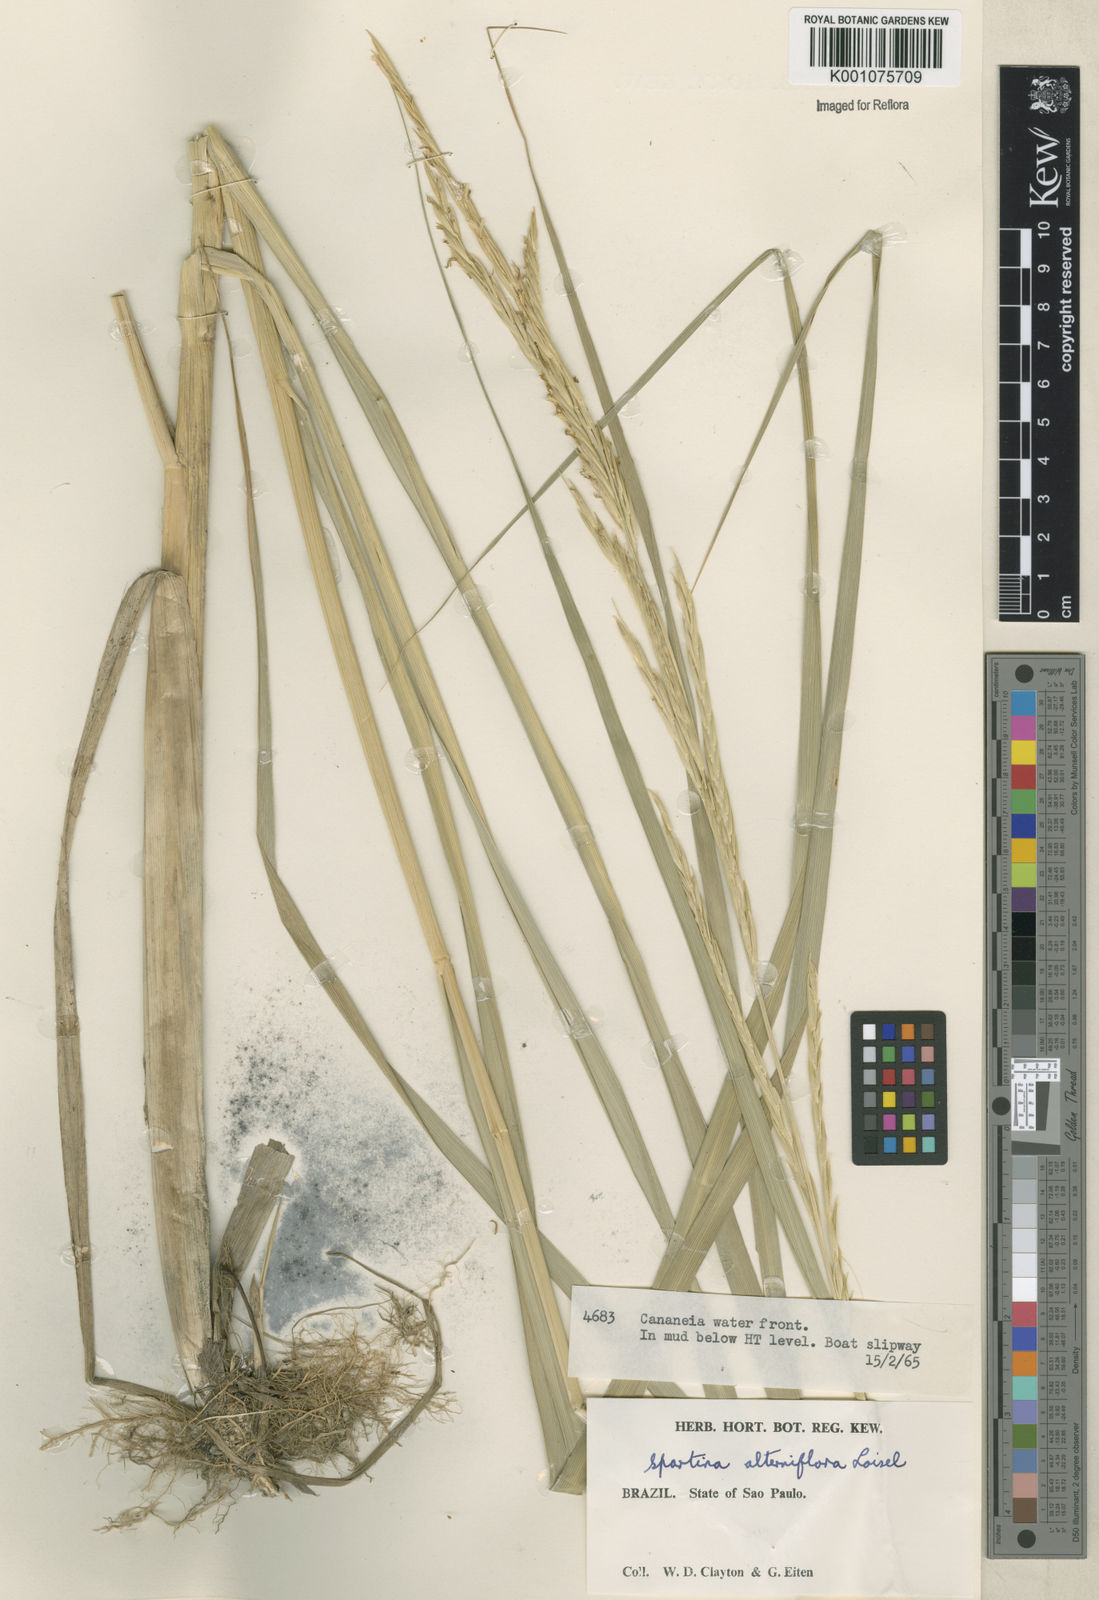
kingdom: Animalia
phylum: Mollusca
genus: Spartina
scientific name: Spartina
